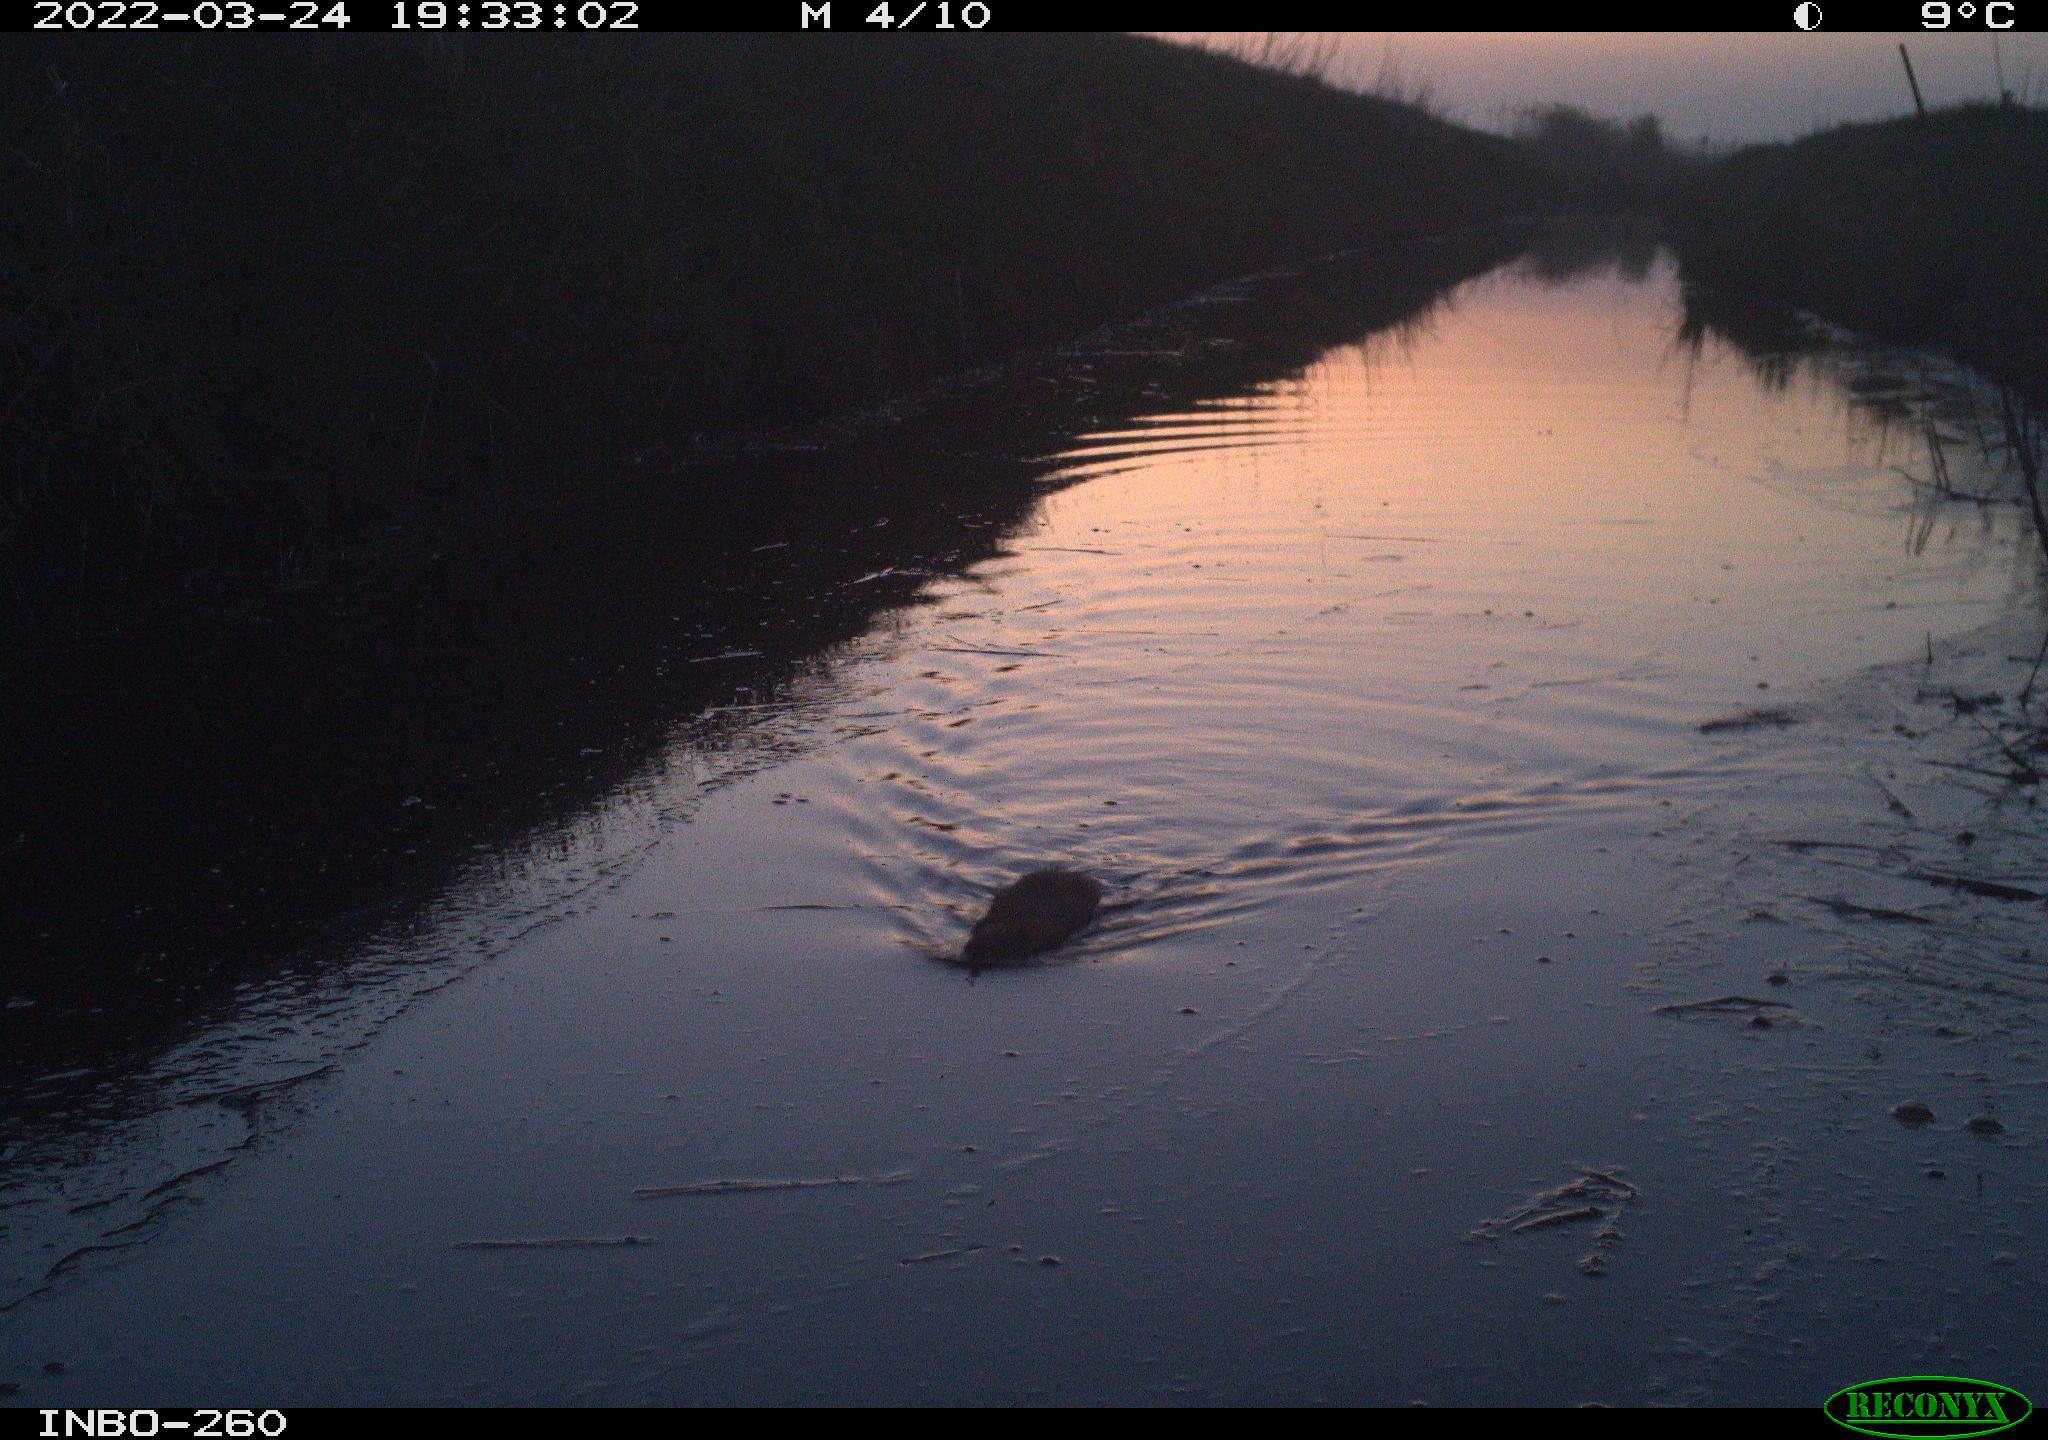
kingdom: Animalia
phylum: Chordata
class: Mammalia
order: Rodentia
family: Muridae
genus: Rattus
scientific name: Rattus norvegicus
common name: Brown rat
